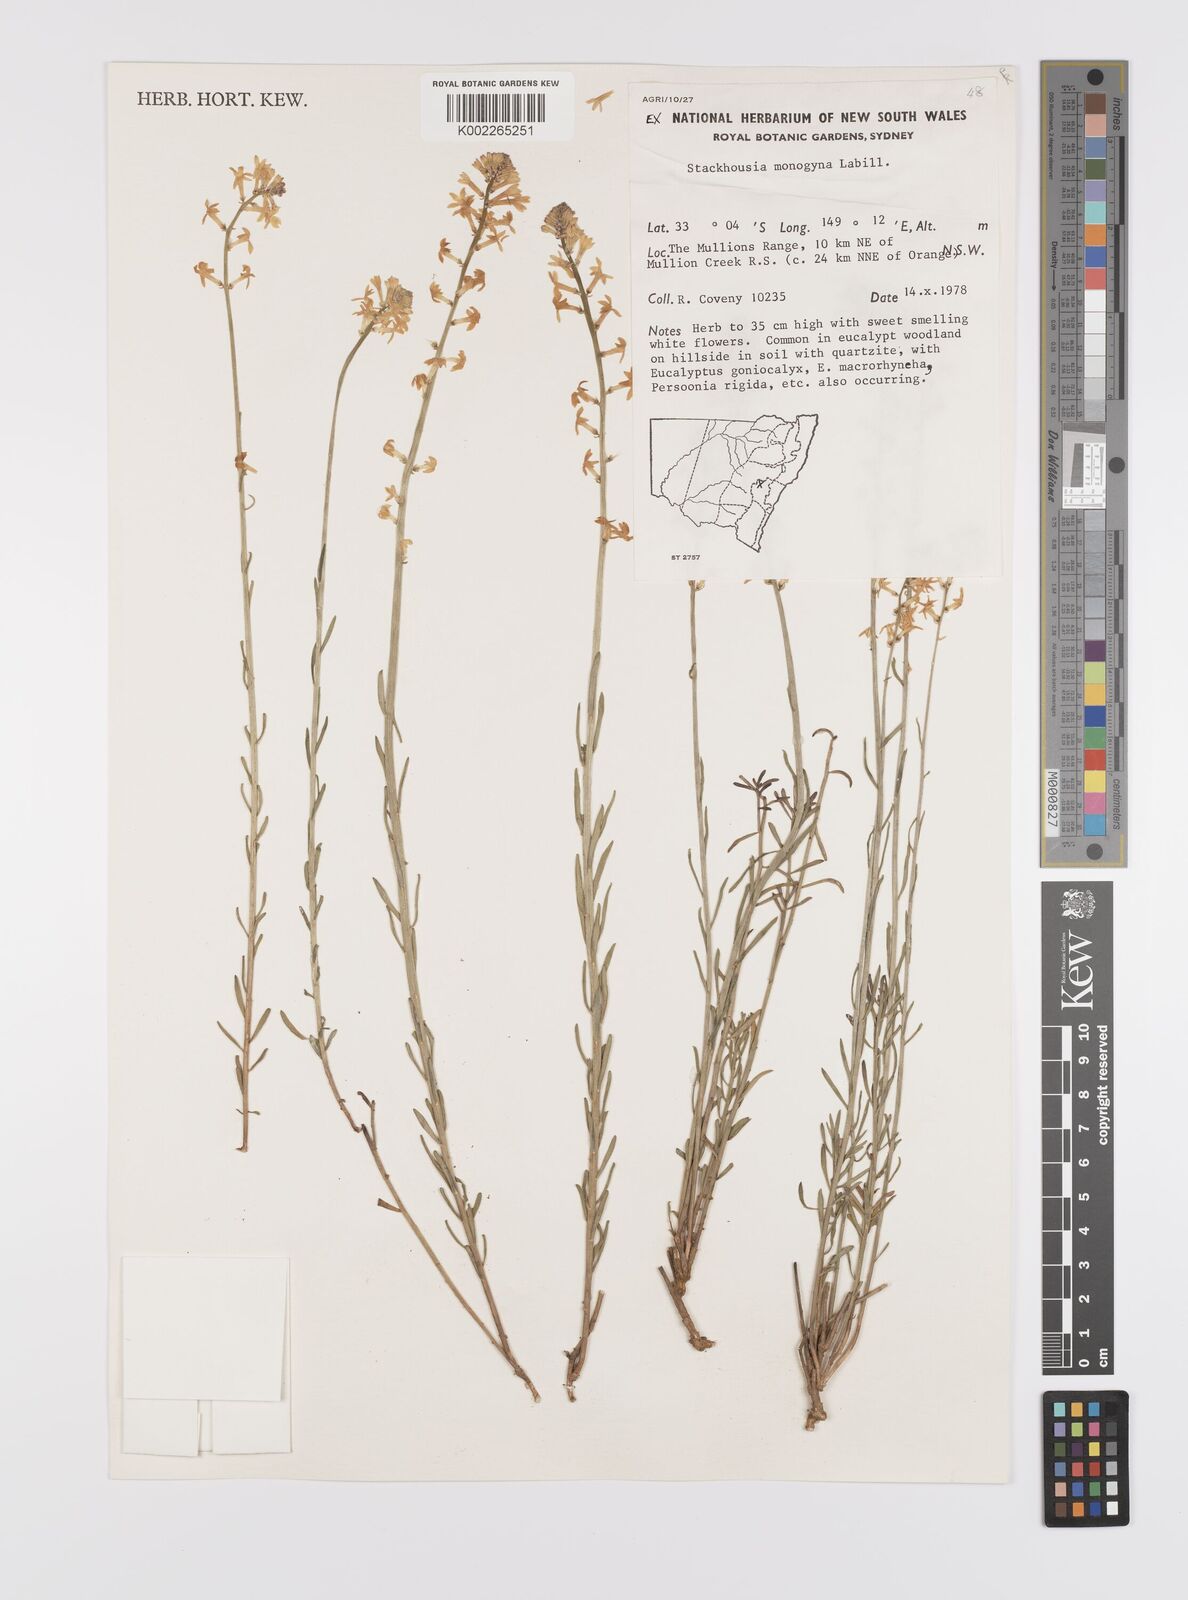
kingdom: Plantae
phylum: Tracheophyta
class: Magnoliopsida
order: Celastrales
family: Celastraceae
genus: Stackhousia
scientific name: Stackhousia monogyna
